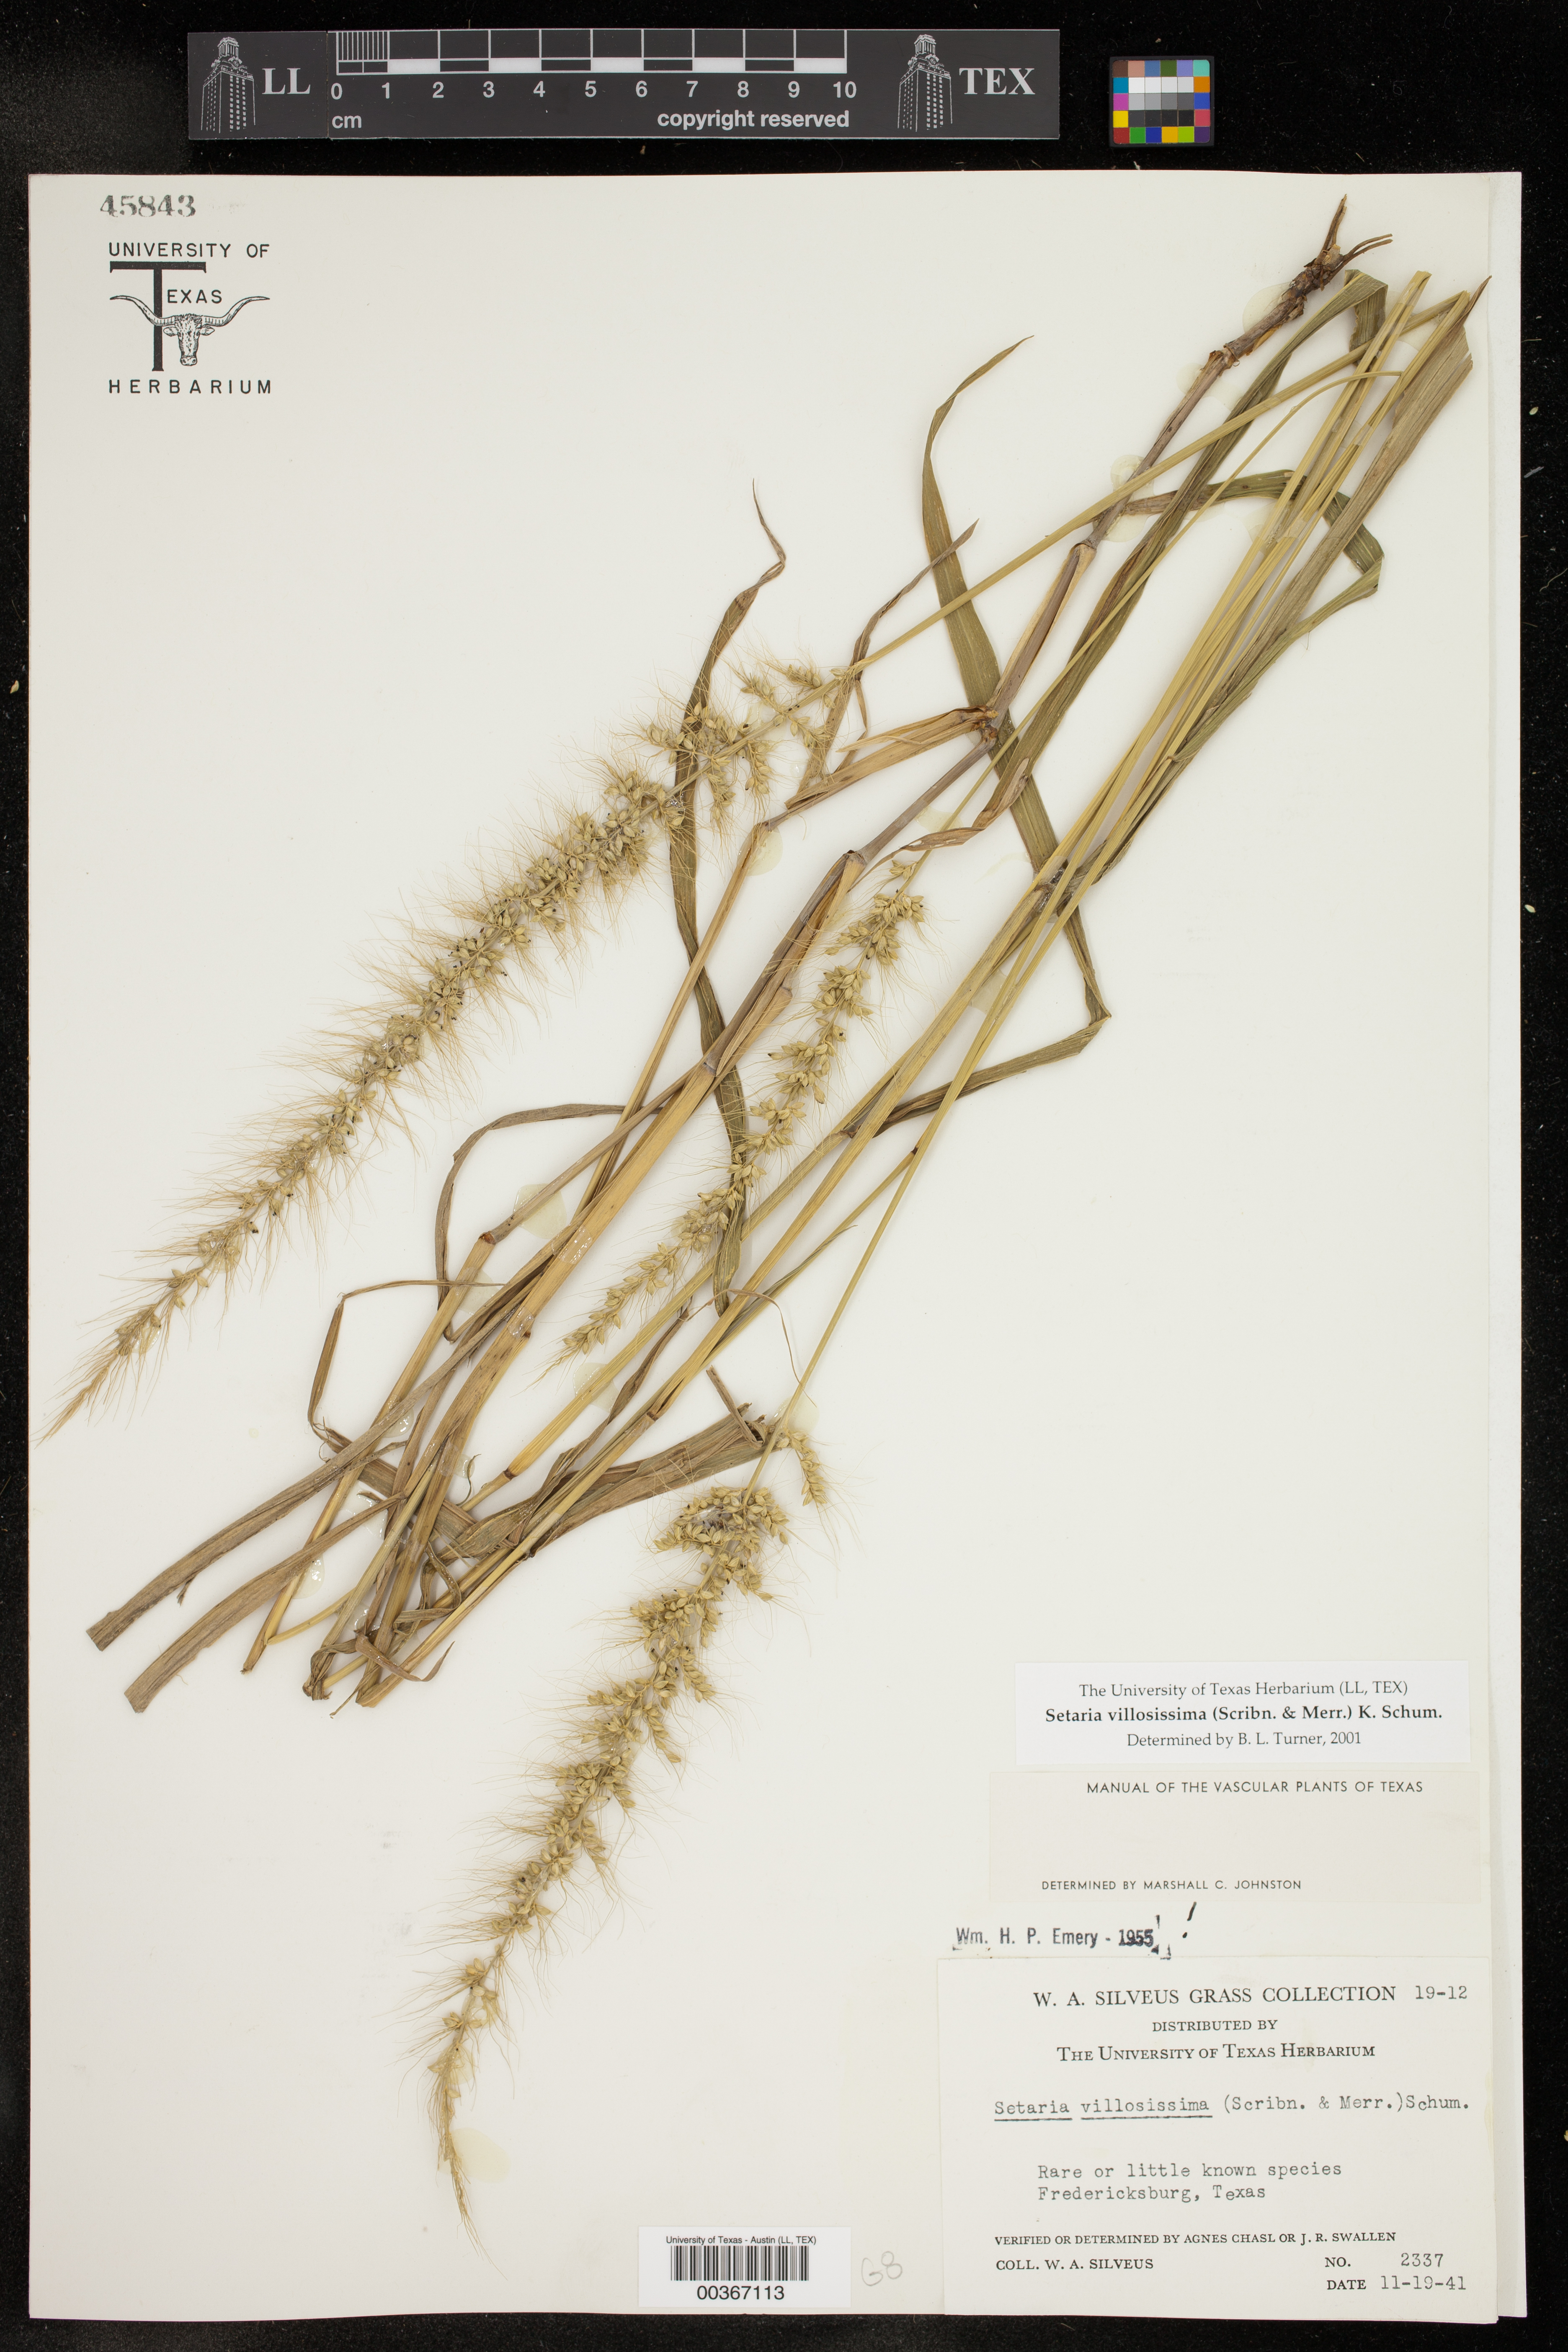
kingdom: Plantae
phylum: Tracheophyta
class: Liliopsida
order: Poales
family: Poaceae
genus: Setaria
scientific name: Setaria villosissima
